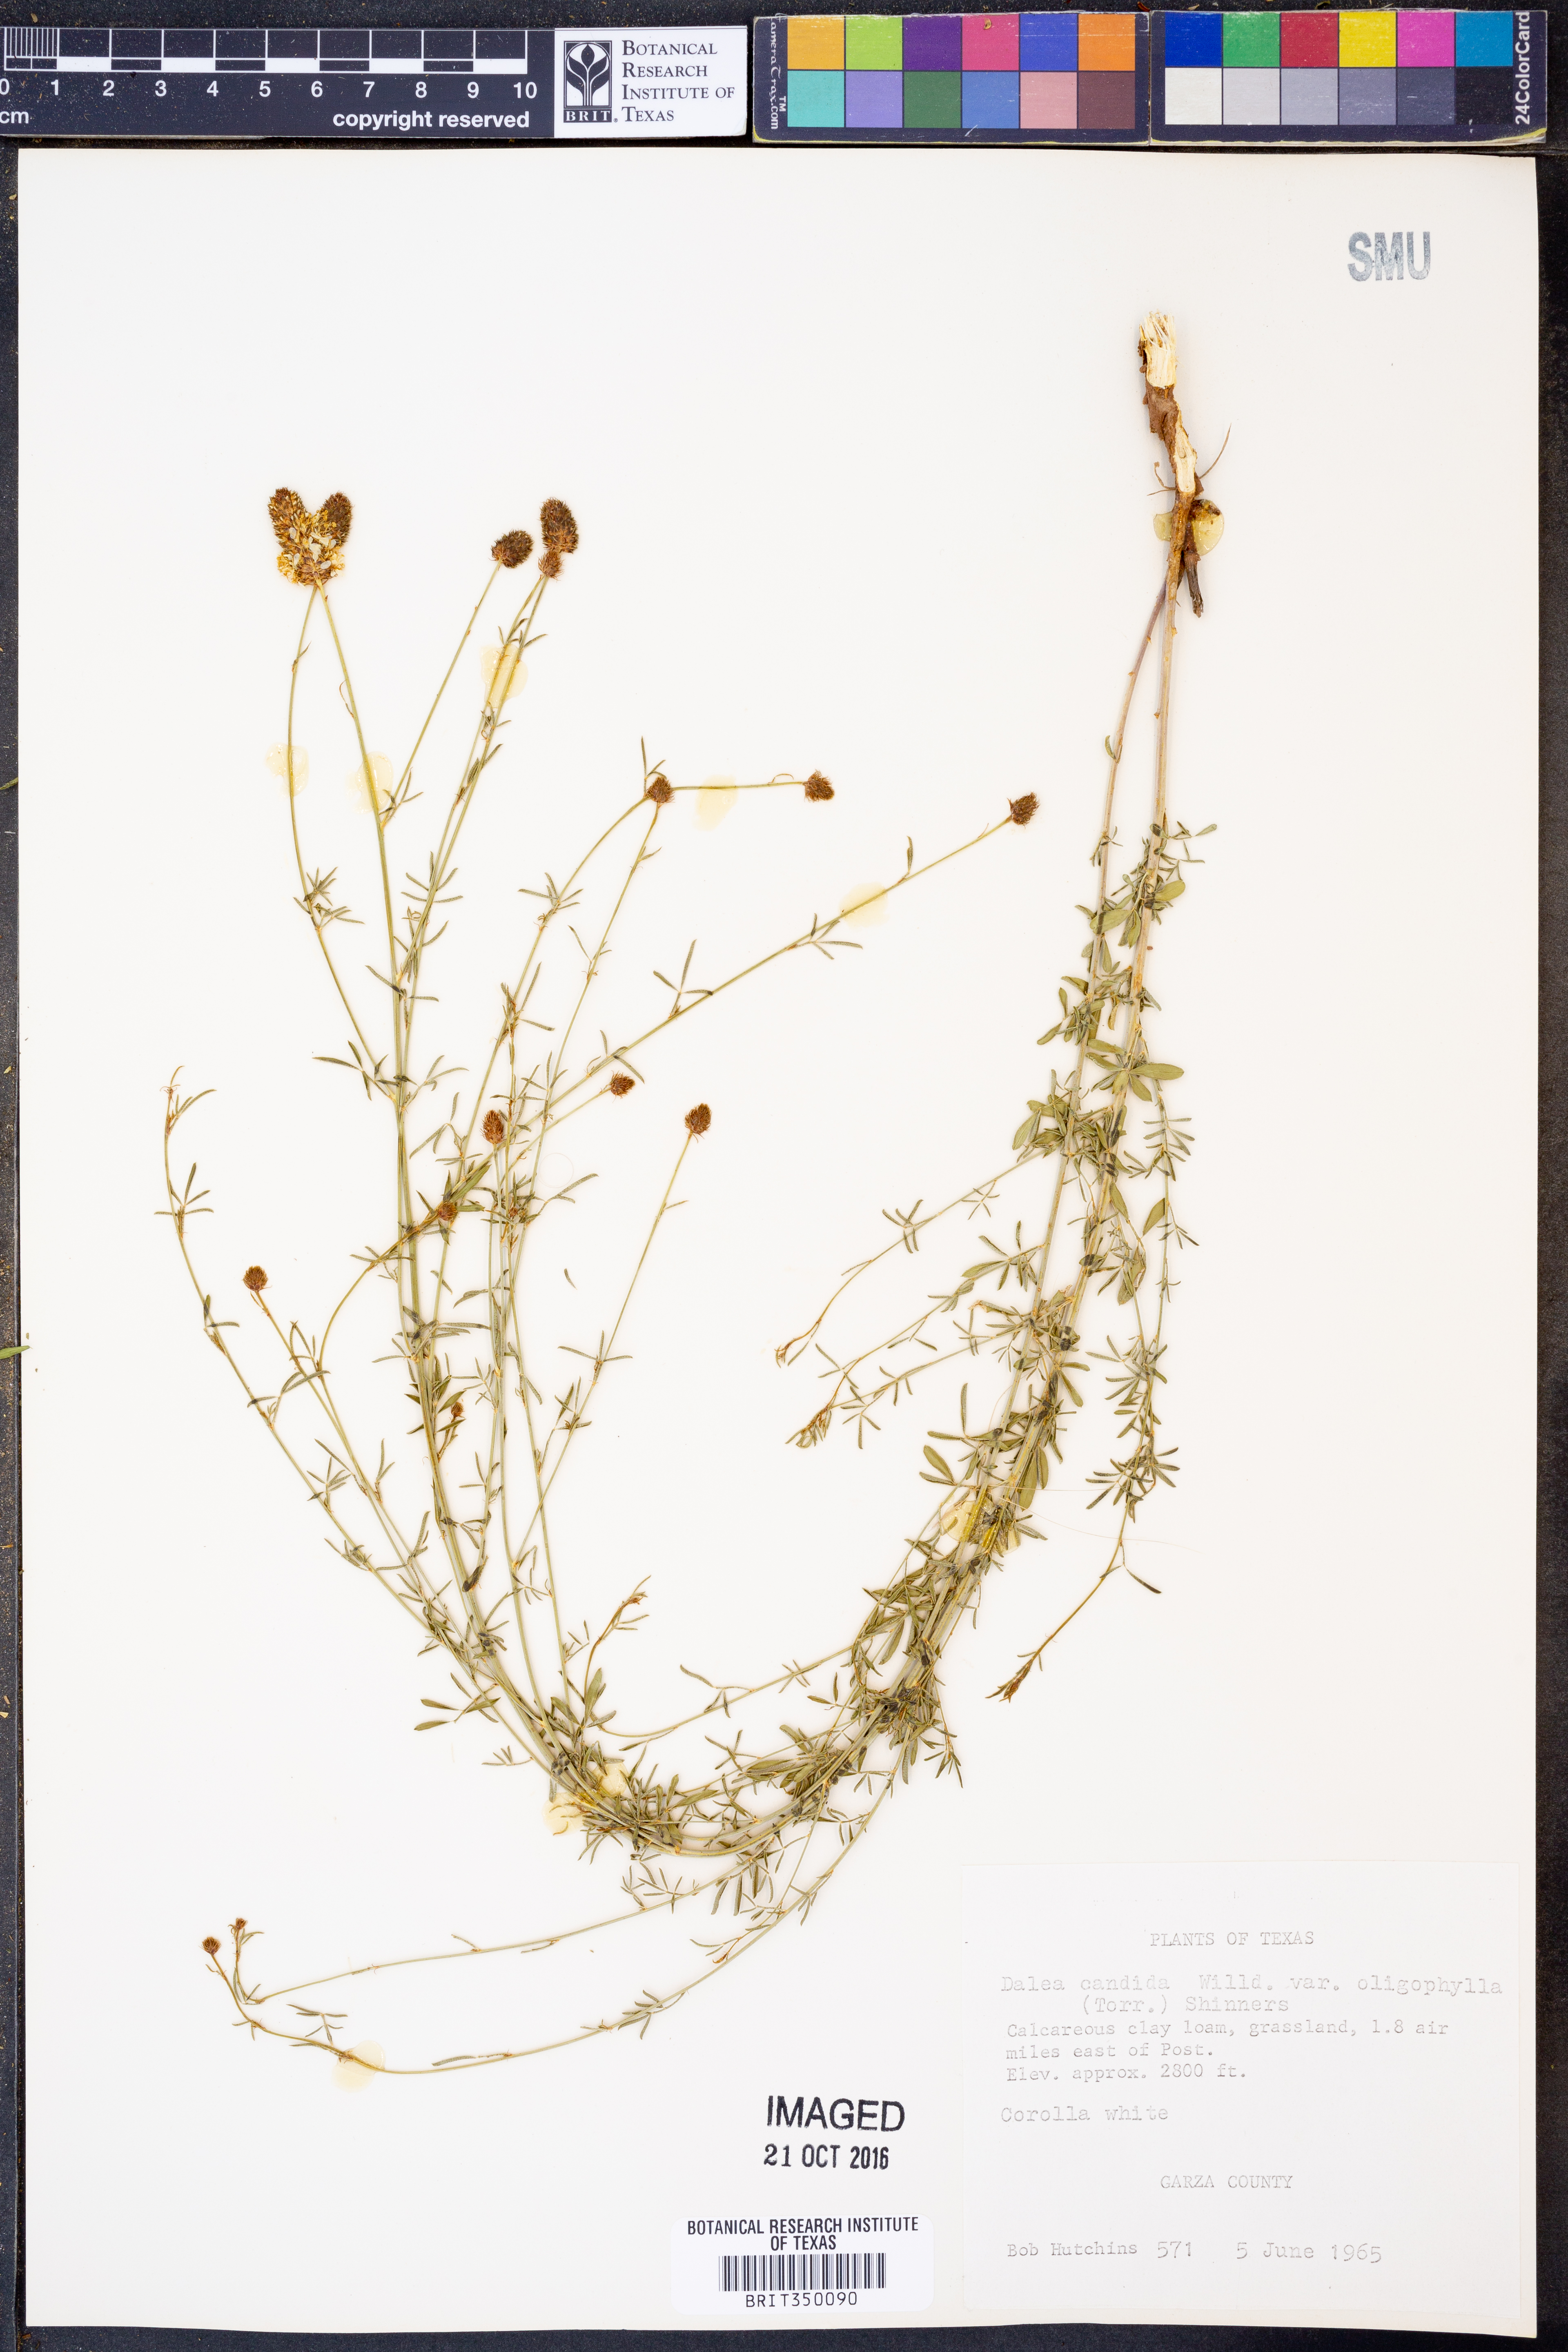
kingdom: Plantae
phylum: Tracheophyta
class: Magnoliopsida
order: Fabales
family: Fabaceae
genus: Dalea
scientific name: Dalea candida
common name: White prairie-clover
